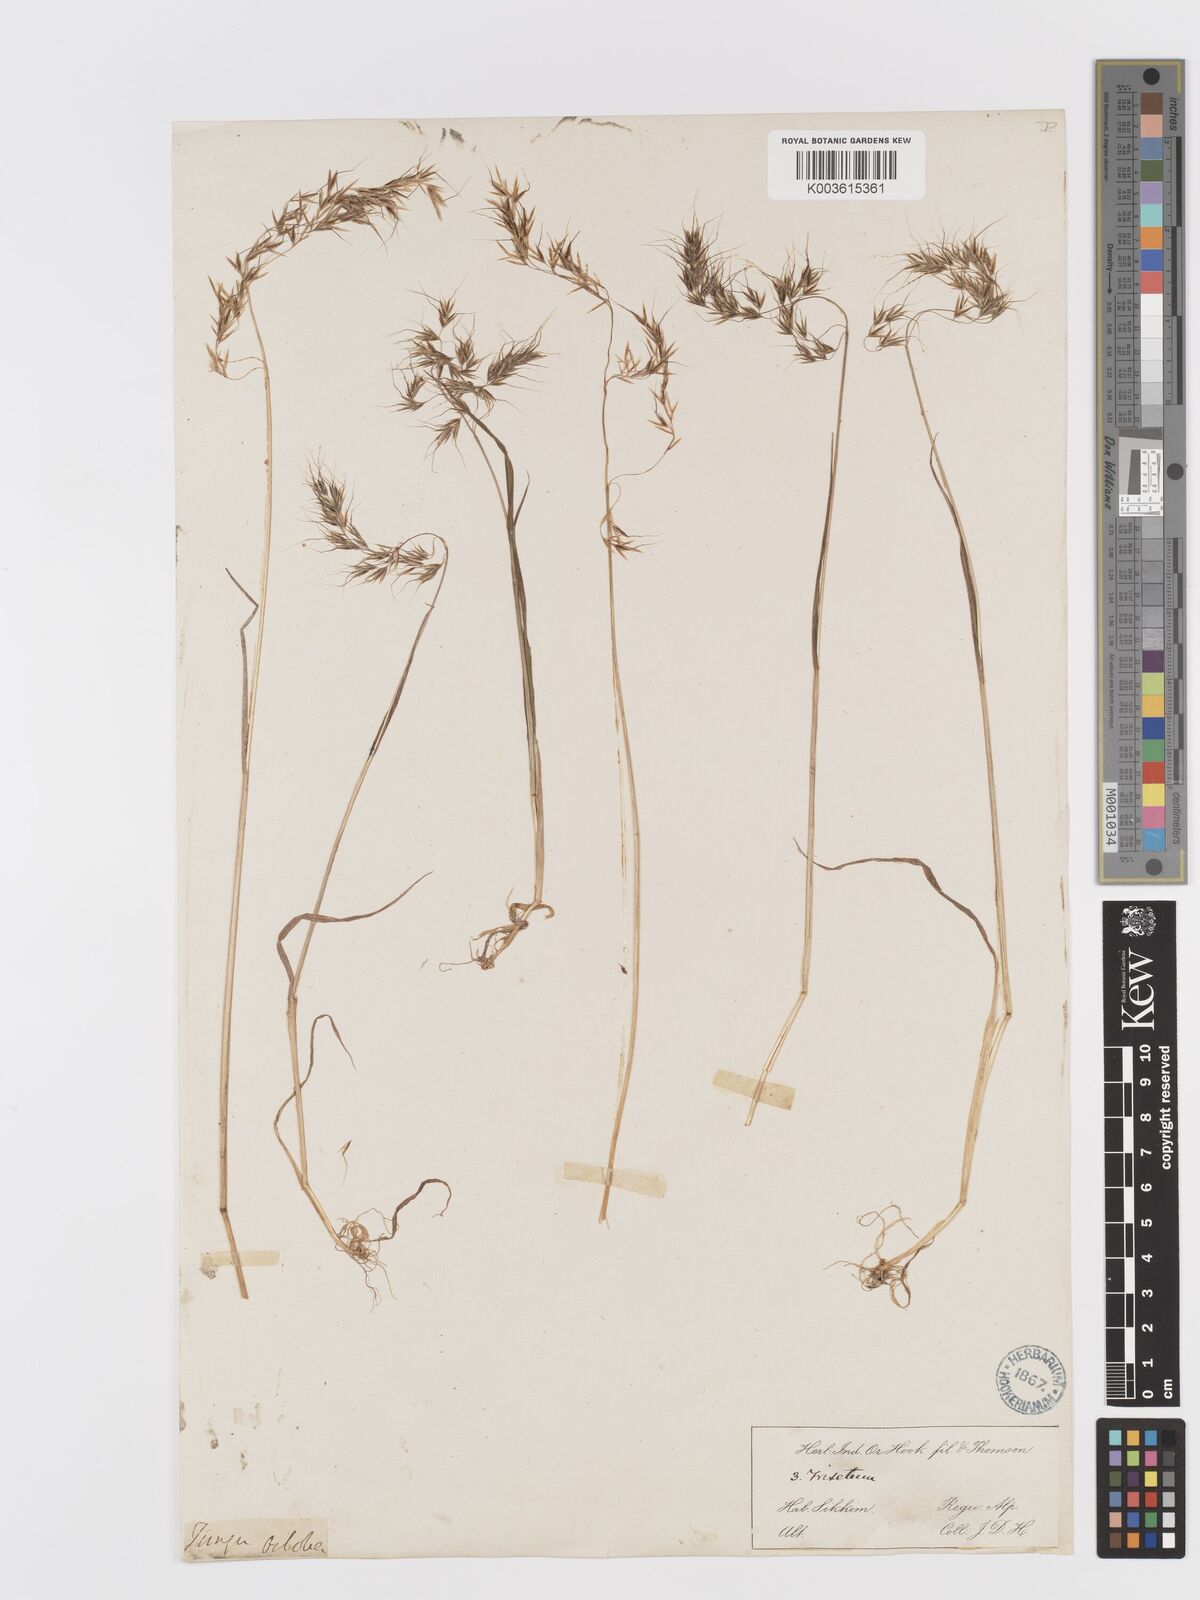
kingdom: Plantae
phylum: Tracheophyta
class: Liliopsida
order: Poales
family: Poaceae
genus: Sibirotrisetum
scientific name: Sibirotrisetum scitulum
